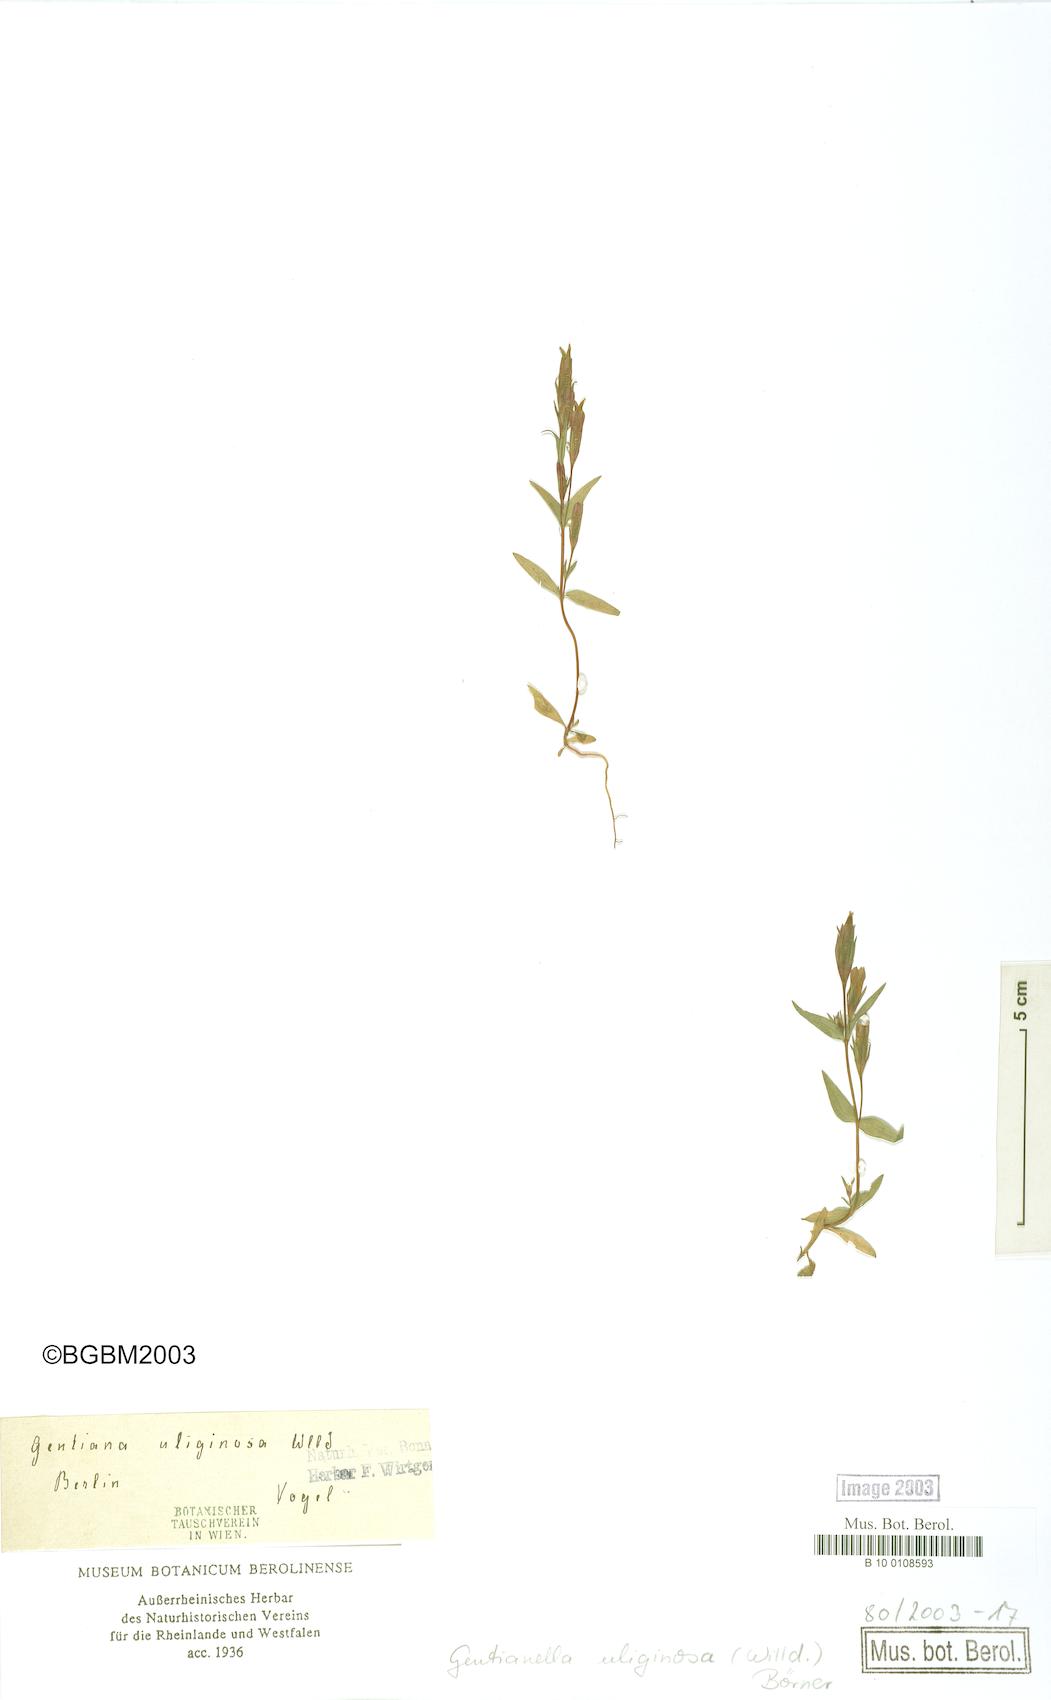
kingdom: Plantae
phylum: Tracheophyta
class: Magnoliopsida
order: Gentianales
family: Gentianaceae
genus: Gentianella
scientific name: Gentianella uliginosa
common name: Dune gentian
